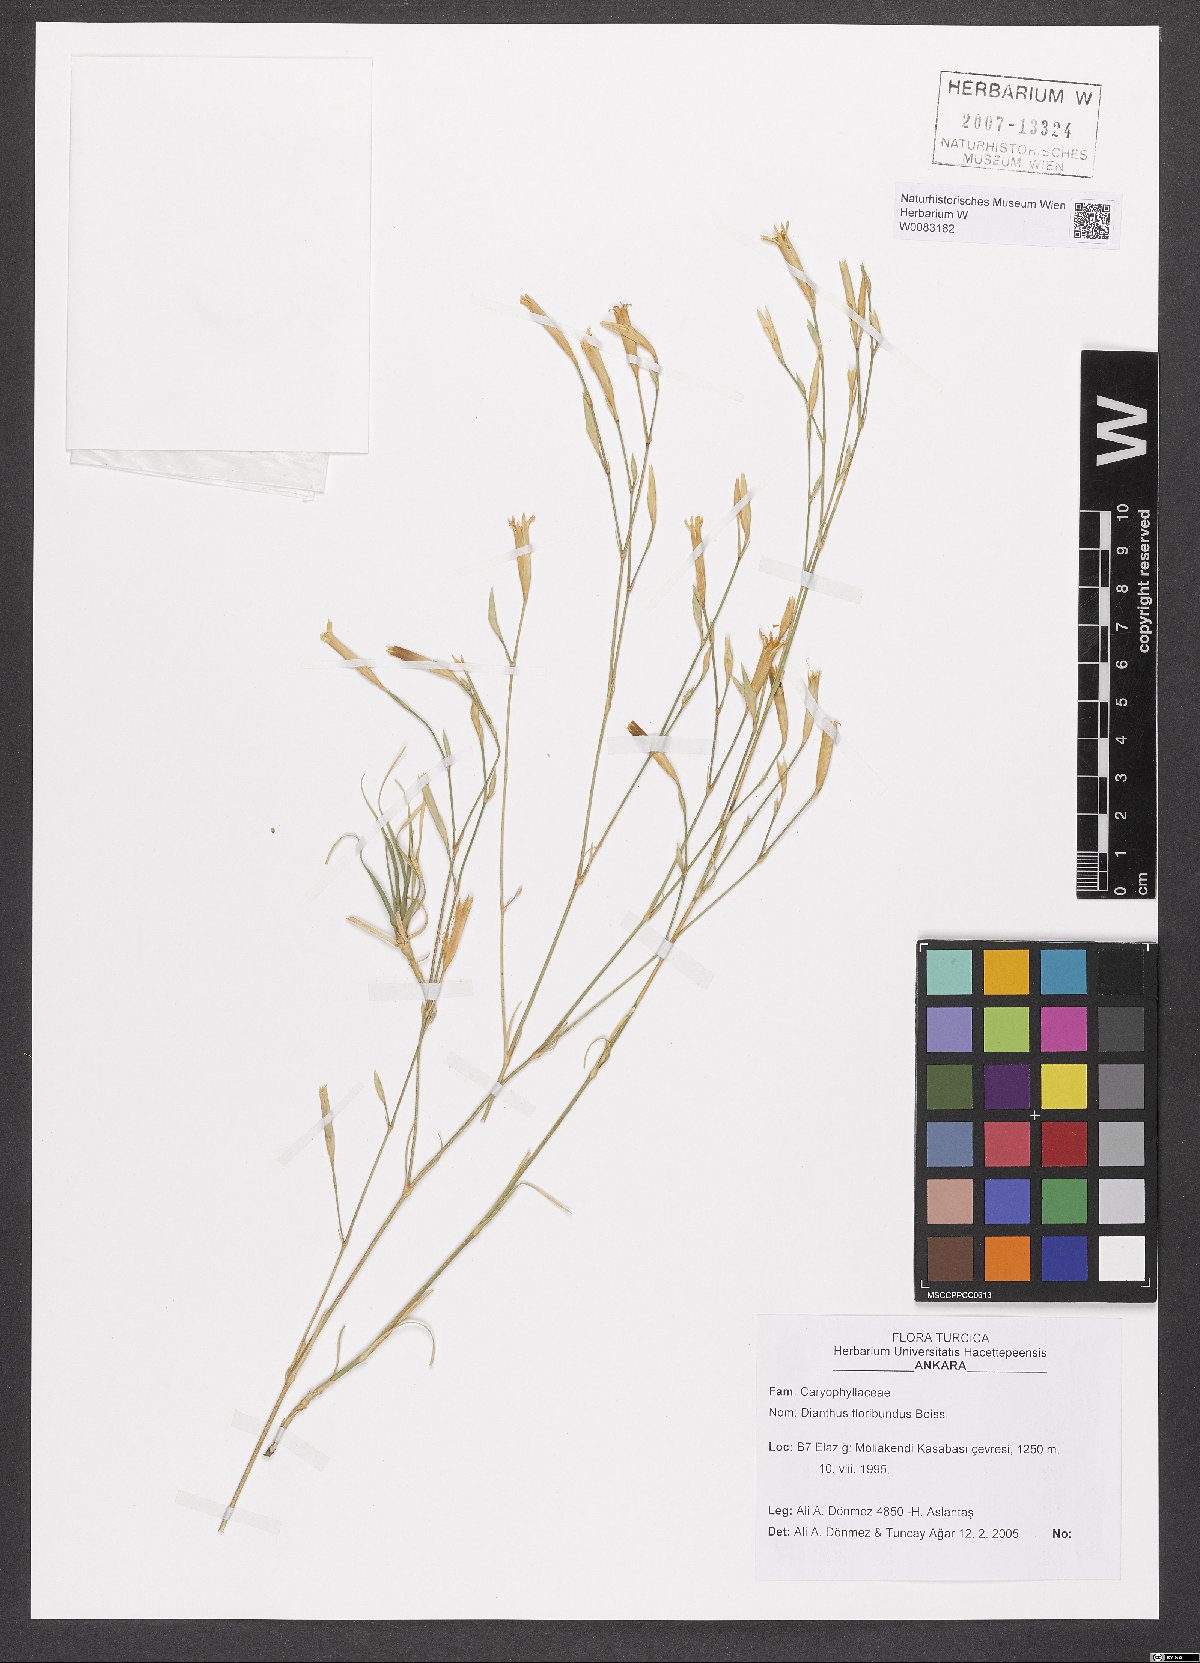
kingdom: Plantae
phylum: Tracheophyta
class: Magnoliopsida
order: Caryophyllales
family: Caryophyllaceae
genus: Dianthus
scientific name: Dianthus floribundus
